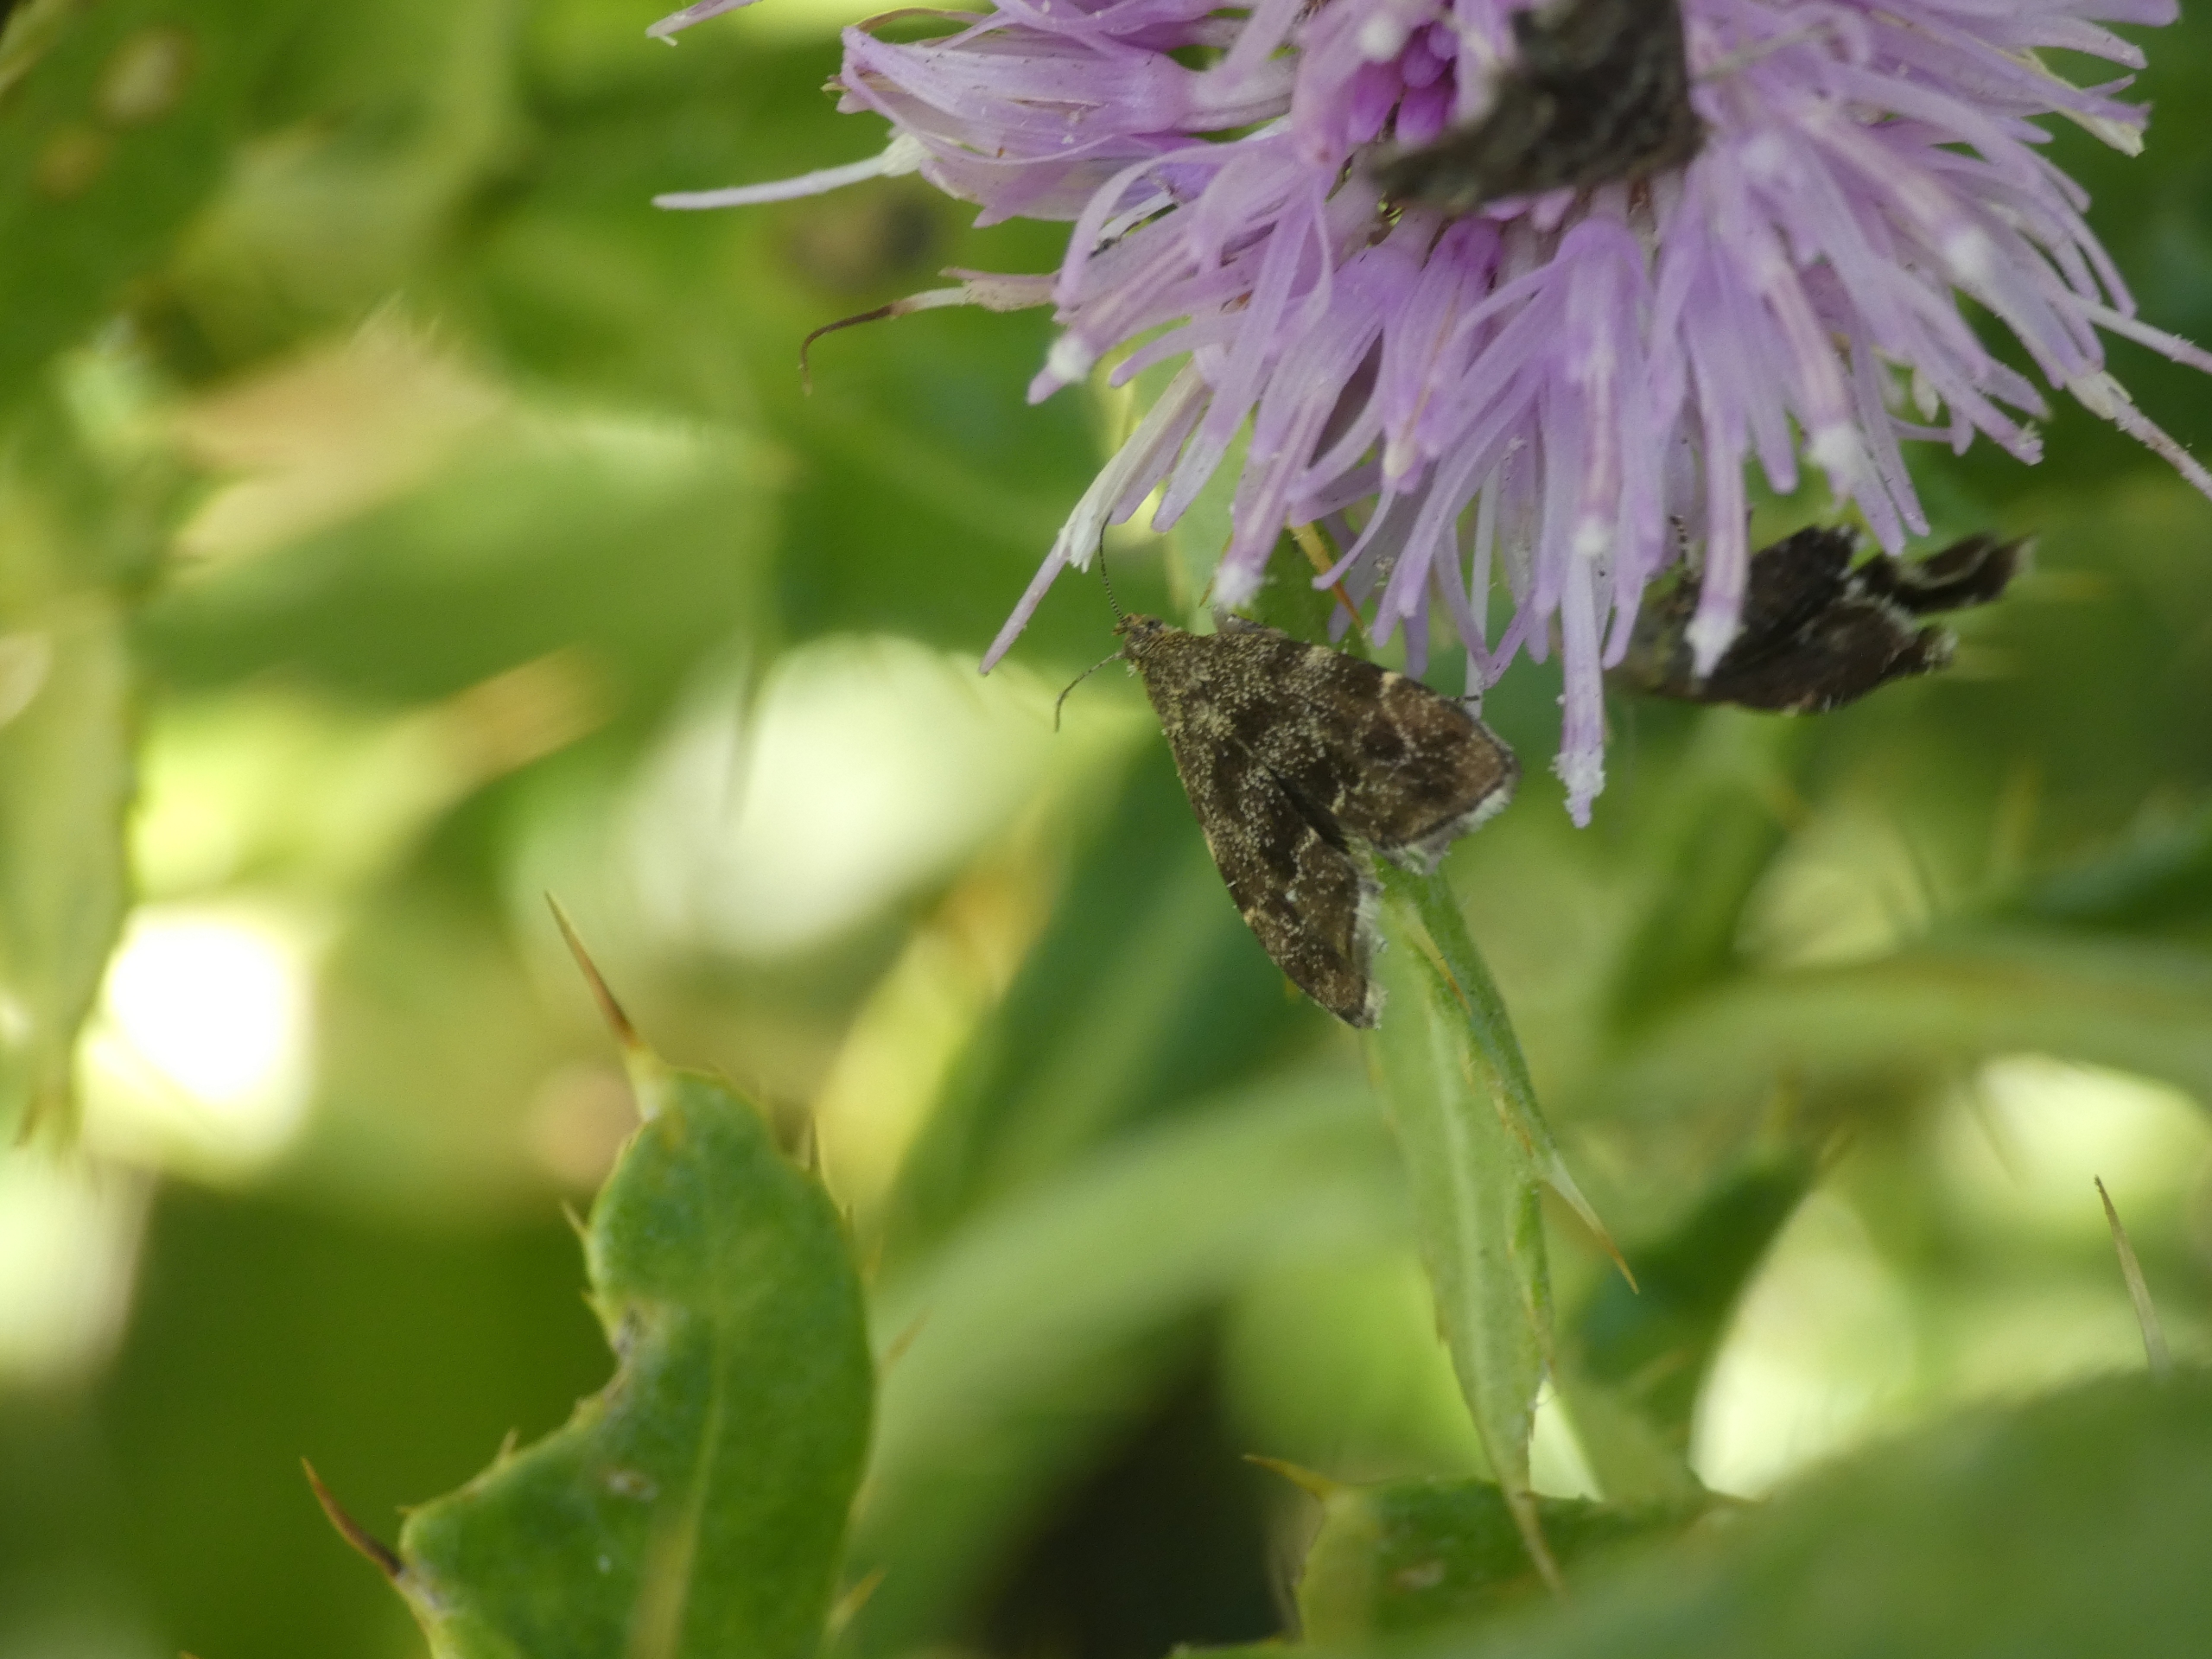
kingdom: Animalia
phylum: Arthropoda
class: Insecta
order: Lepidoptera
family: Choreutidae
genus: Anthophila
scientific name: Anthophila fabriciana
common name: Bredvinget nældevikler
